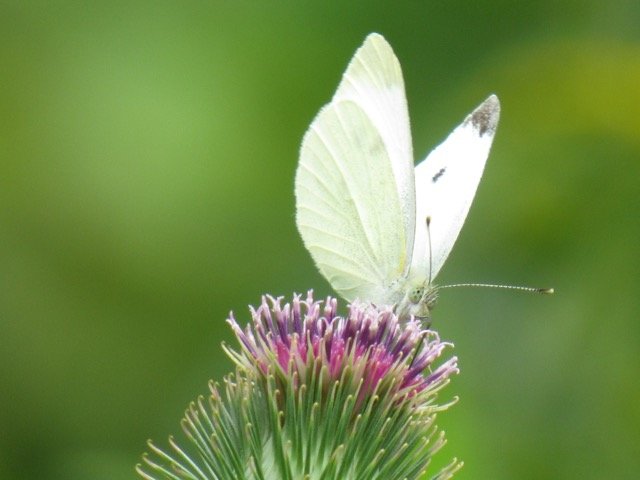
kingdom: Animalia
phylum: Arthropoda
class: Insecta
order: Lepidoptera
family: Pieridae
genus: Pieris
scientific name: Pieris rapae
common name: Cabbage White
